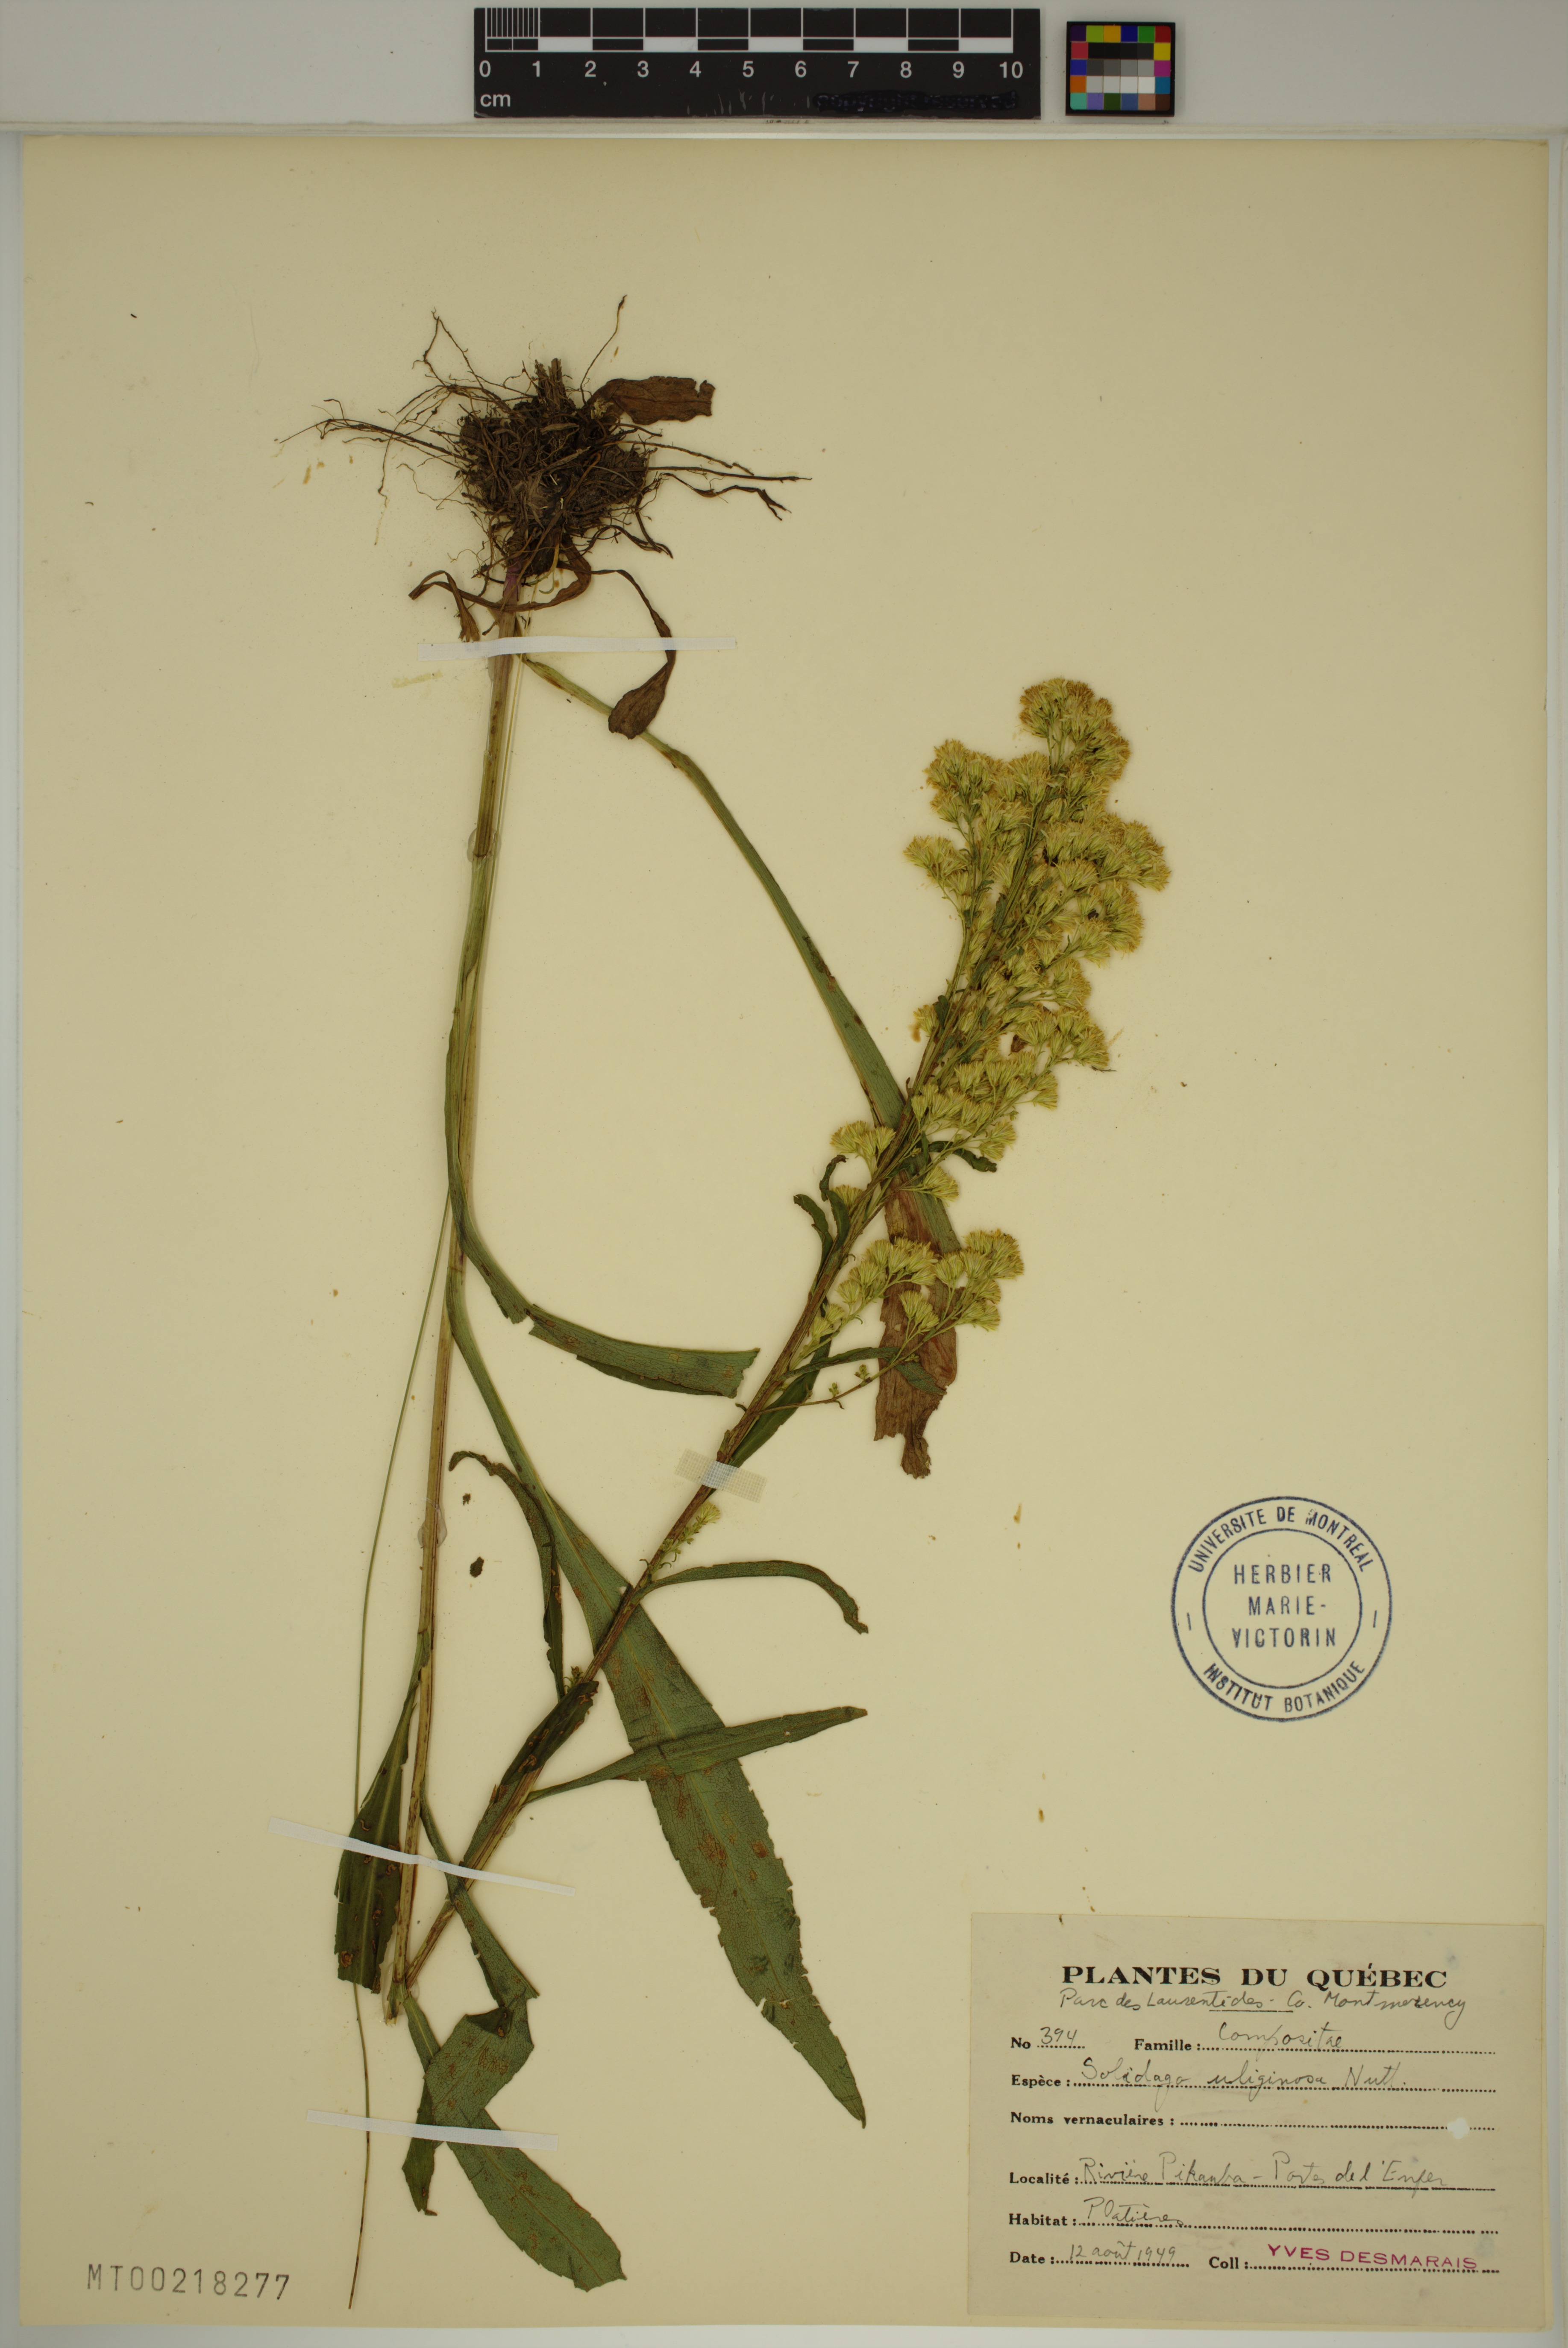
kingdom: Plantae
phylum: Tracheophyta
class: Magnoliopsida
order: Asterales
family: Asteraceae
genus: Solidago
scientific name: Solidago uliginosa
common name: Bog goldenrod
